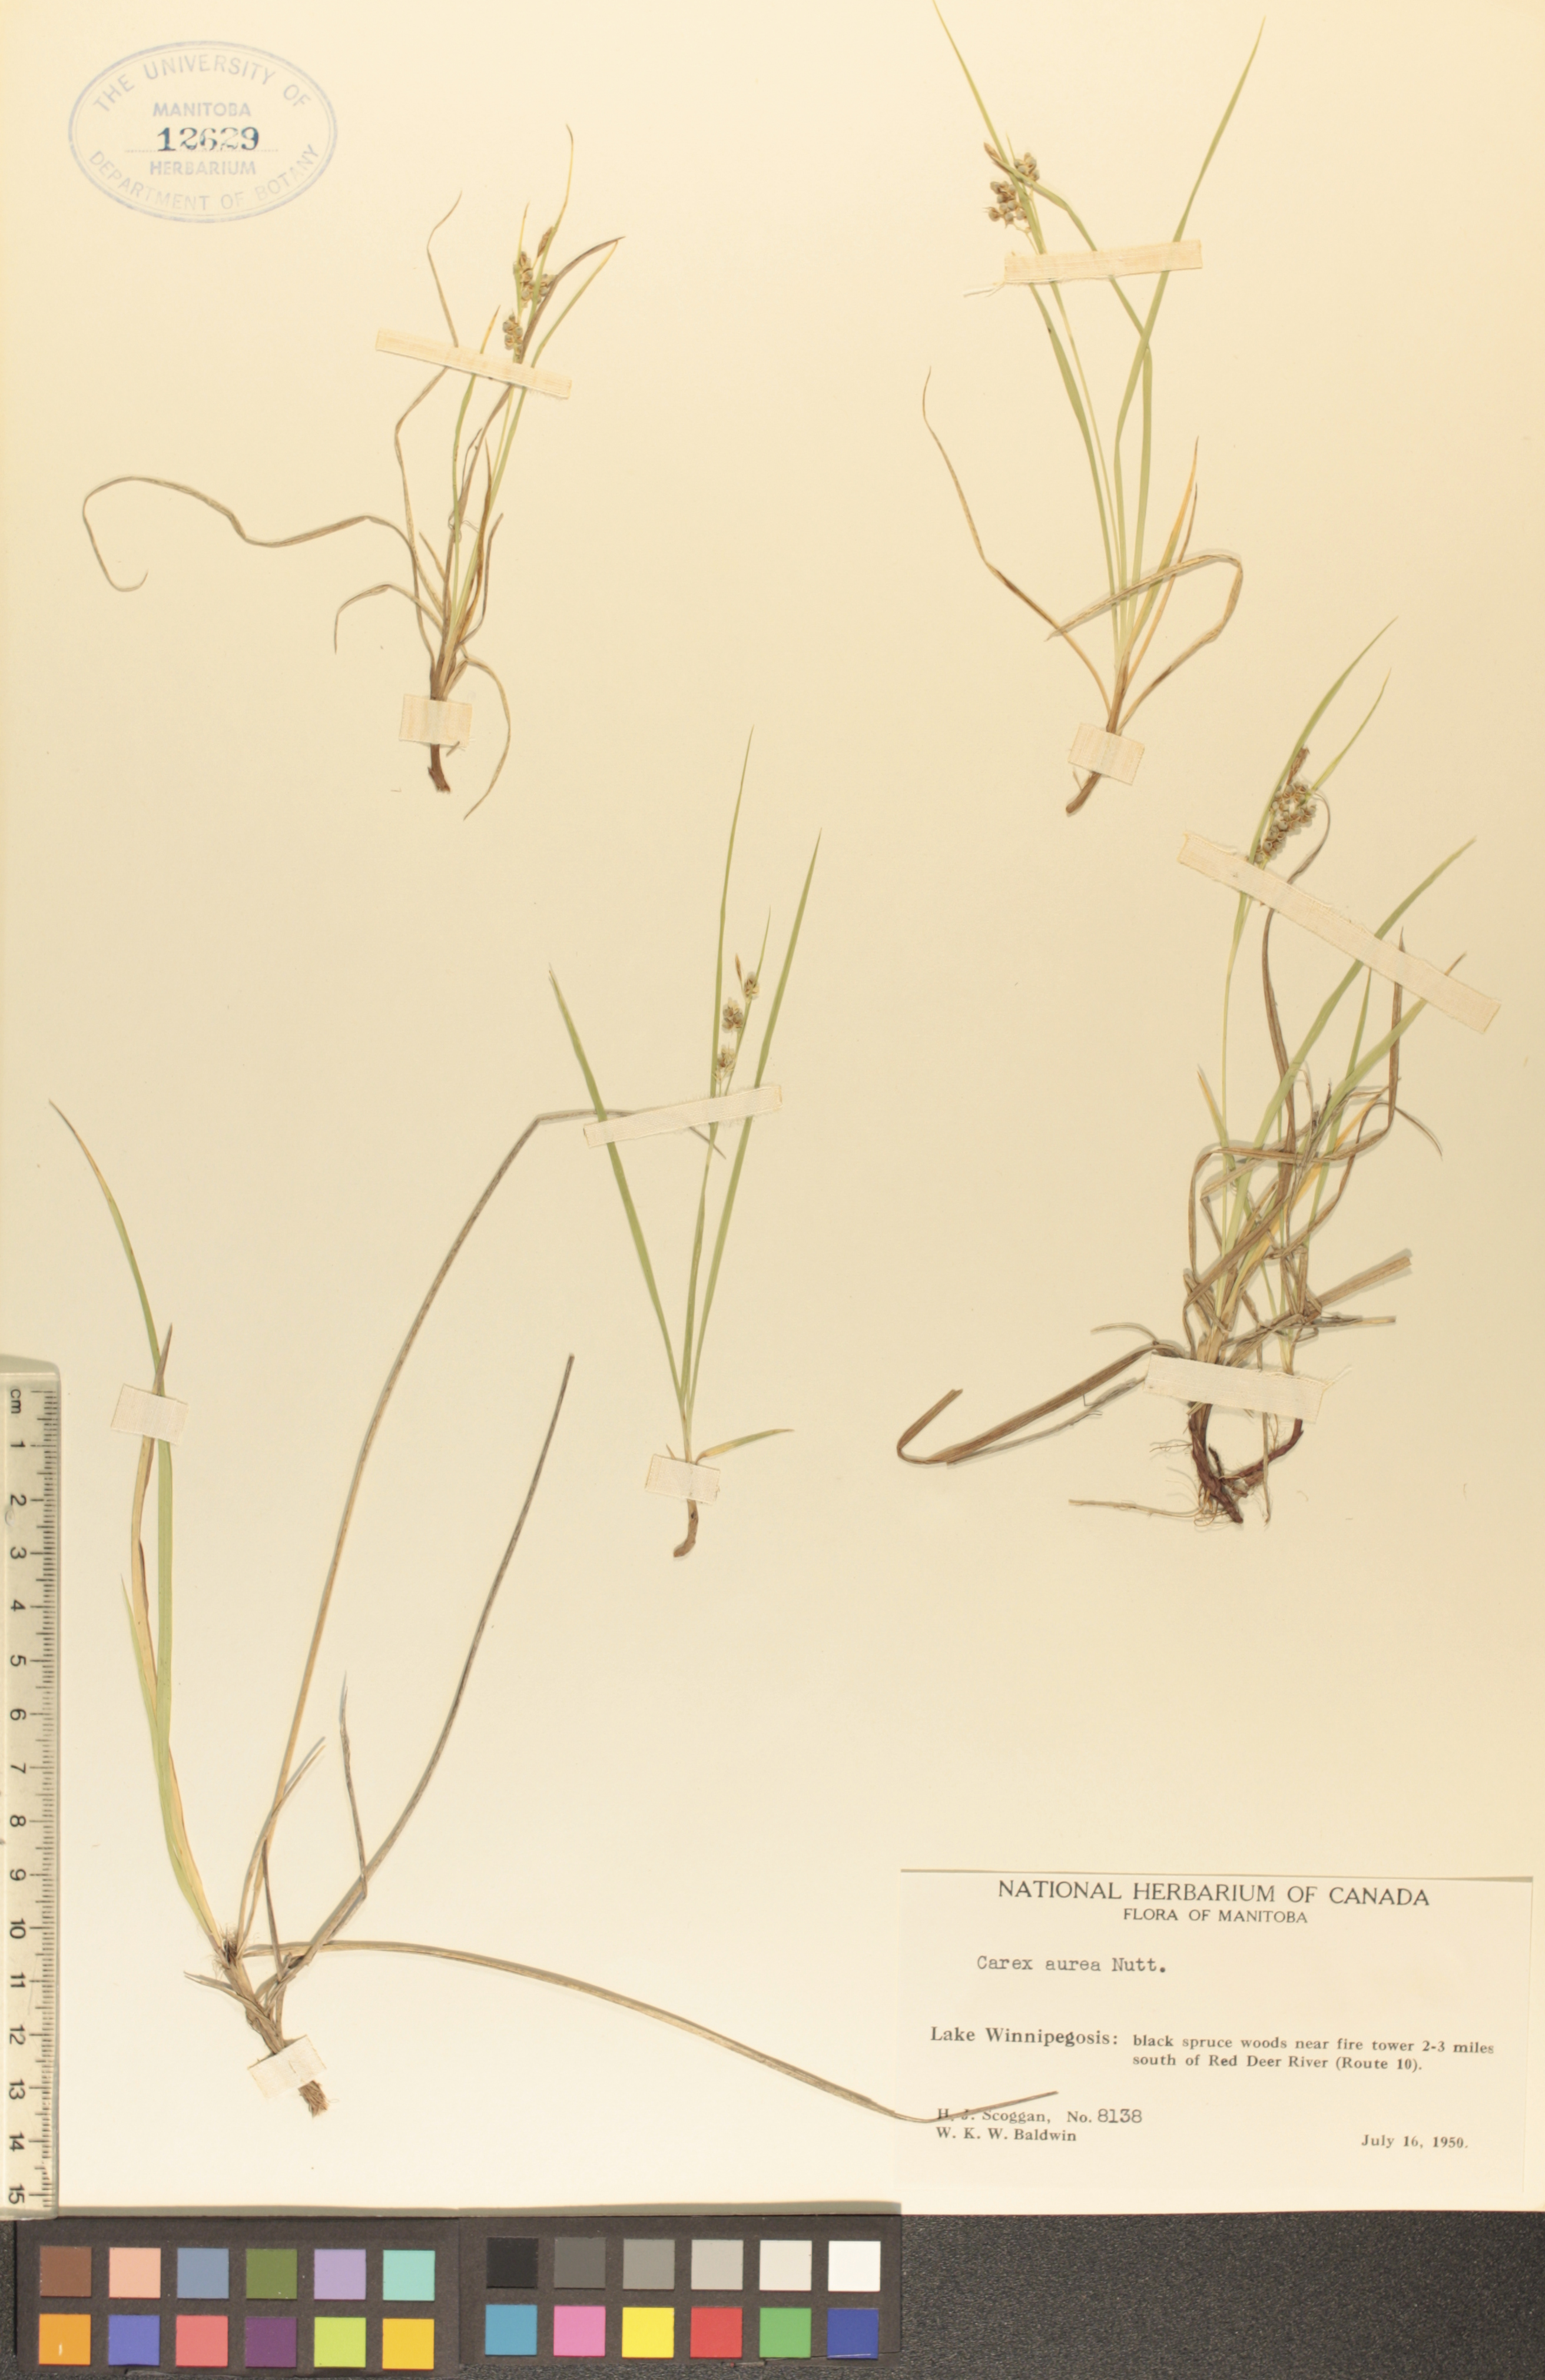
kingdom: Plantae
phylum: Tracheophyta
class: Liliopsida
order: Poales
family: Cyperaceae
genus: Carex
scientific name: Carex aurea
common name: Golden sedge
